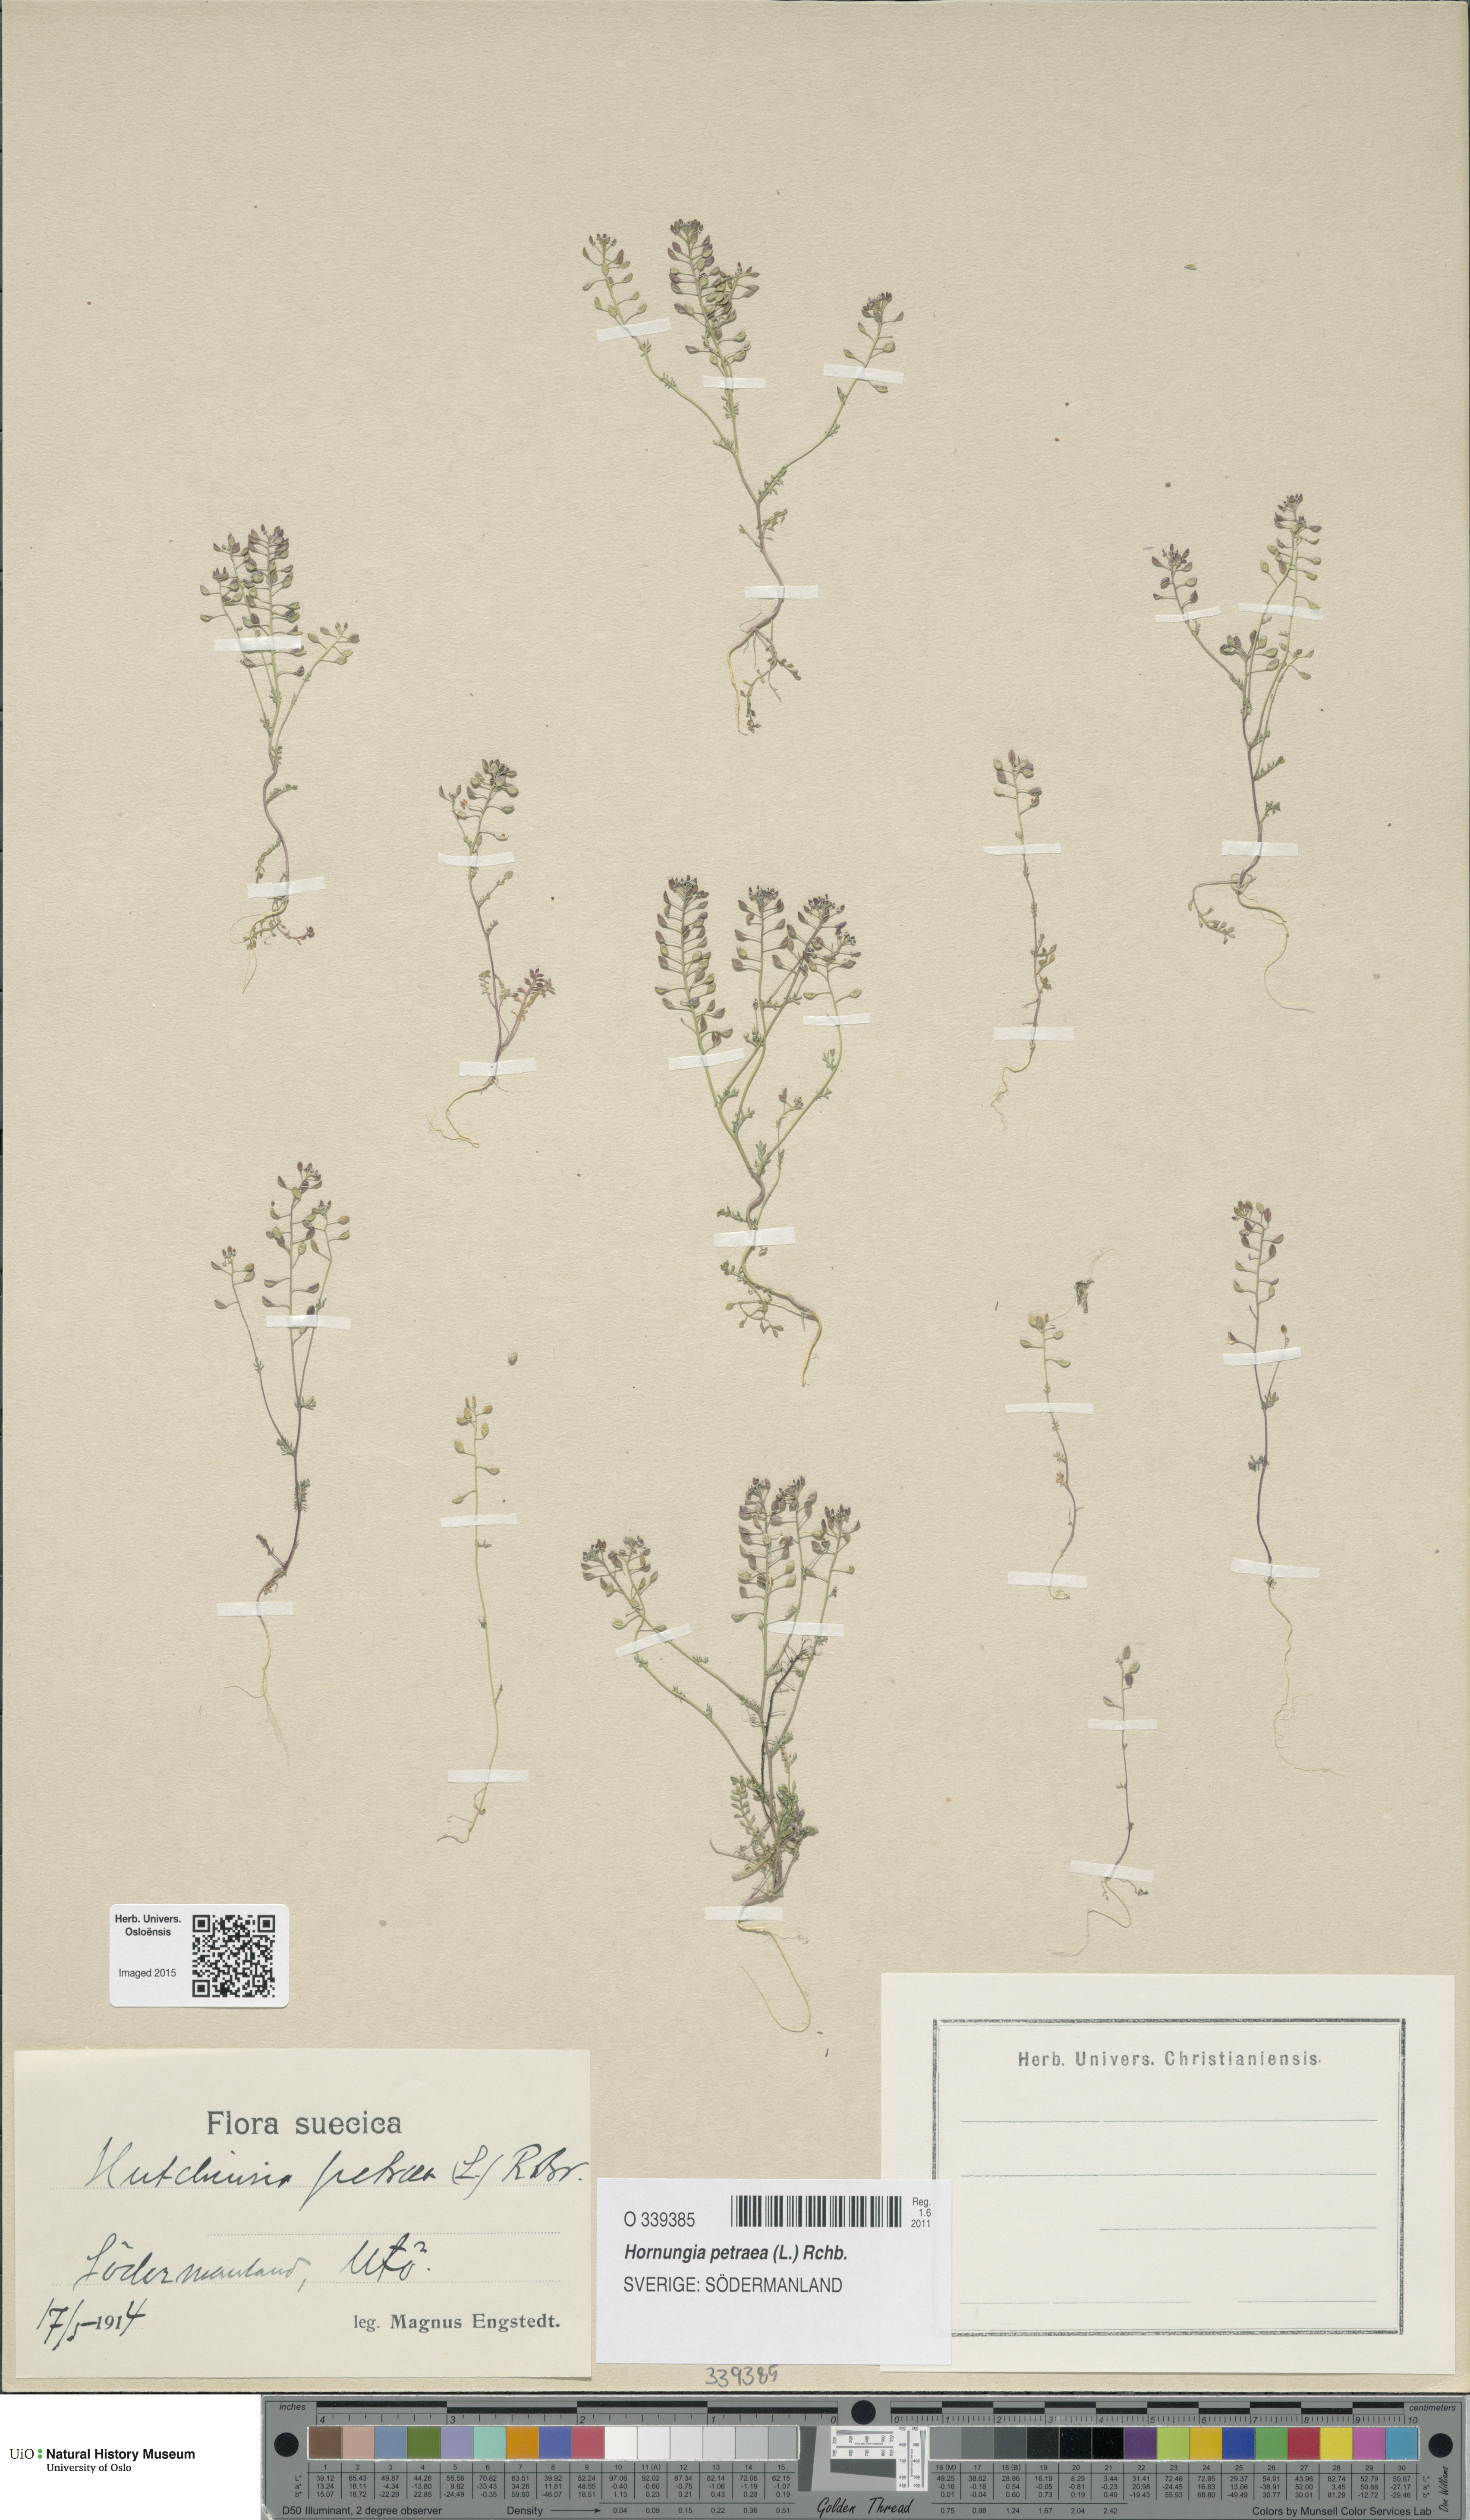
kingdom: Plantae
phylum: Tracheophyta
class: Magnoliopsida
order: Brassicales
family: Brassicaceae
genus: Hornungia
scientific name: Hornungia petraea
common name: Hutchinsia
